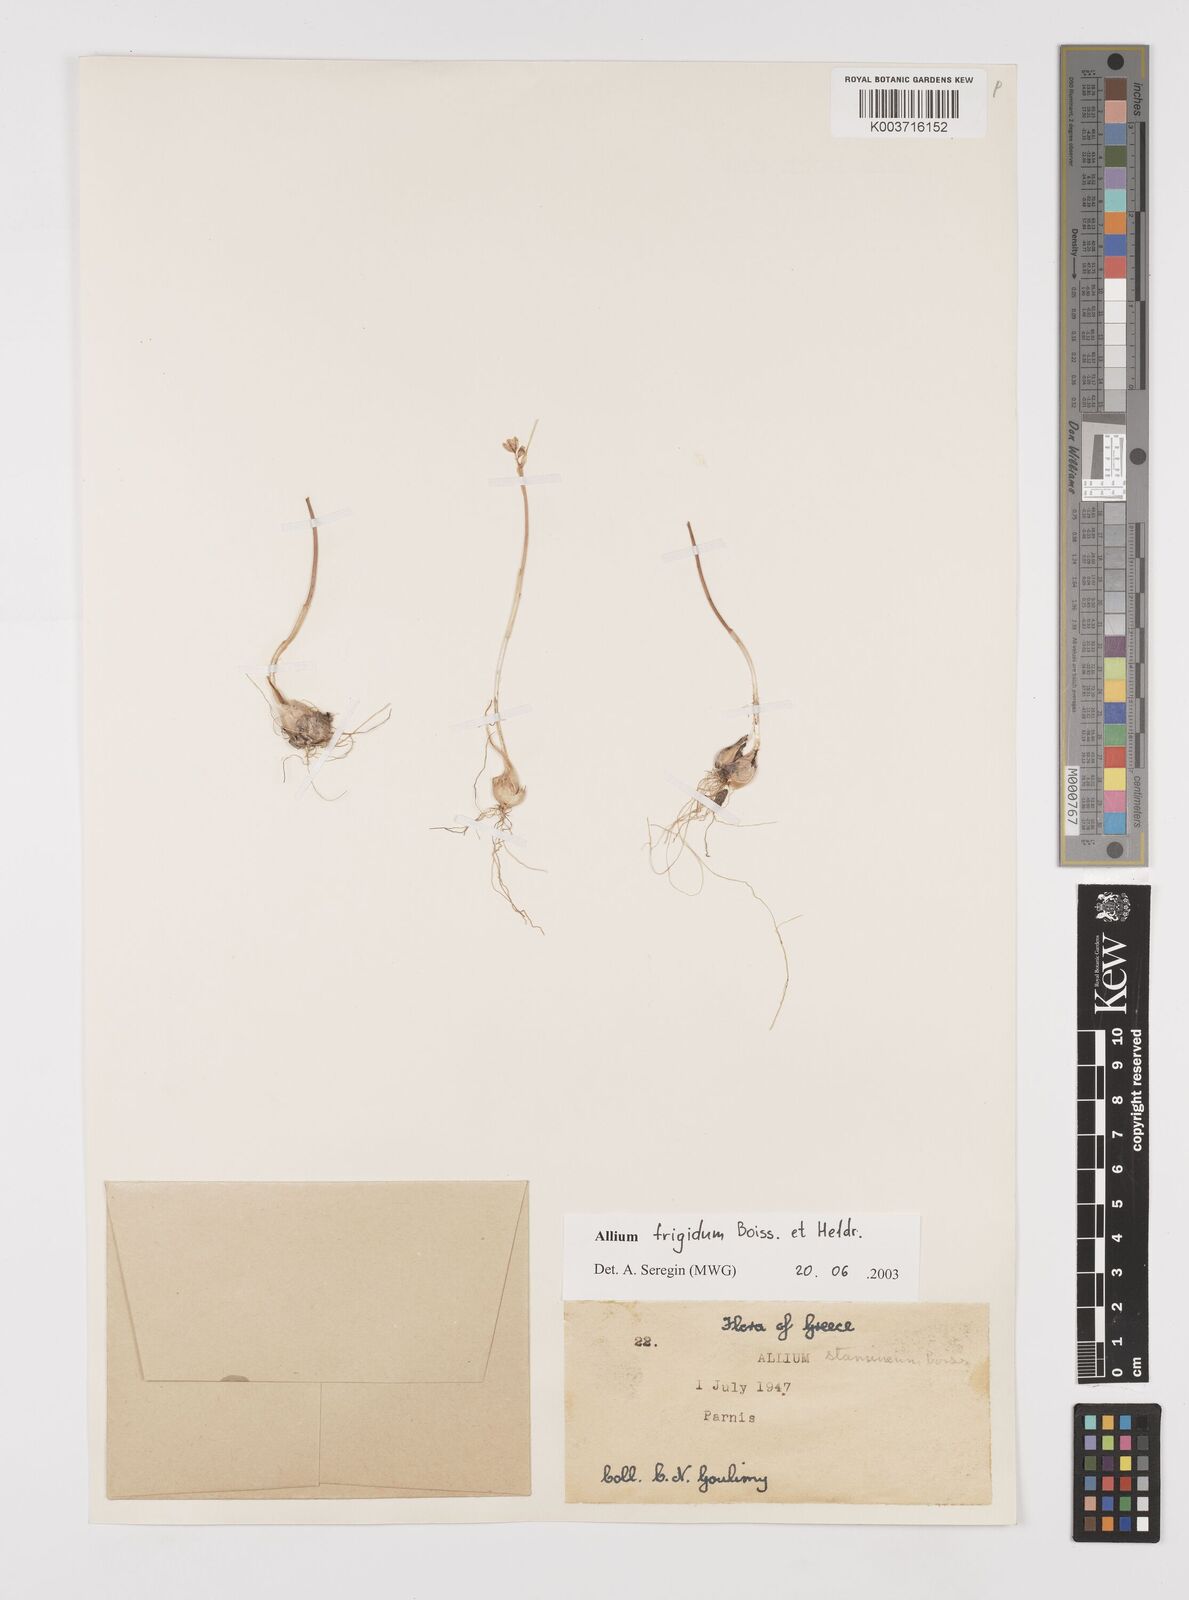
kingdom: Plantae
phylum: Tracheophyta
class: Liliopsida
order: Asparagales
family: Amaryllidaceae
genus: Allium
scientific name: Allium frigidum
